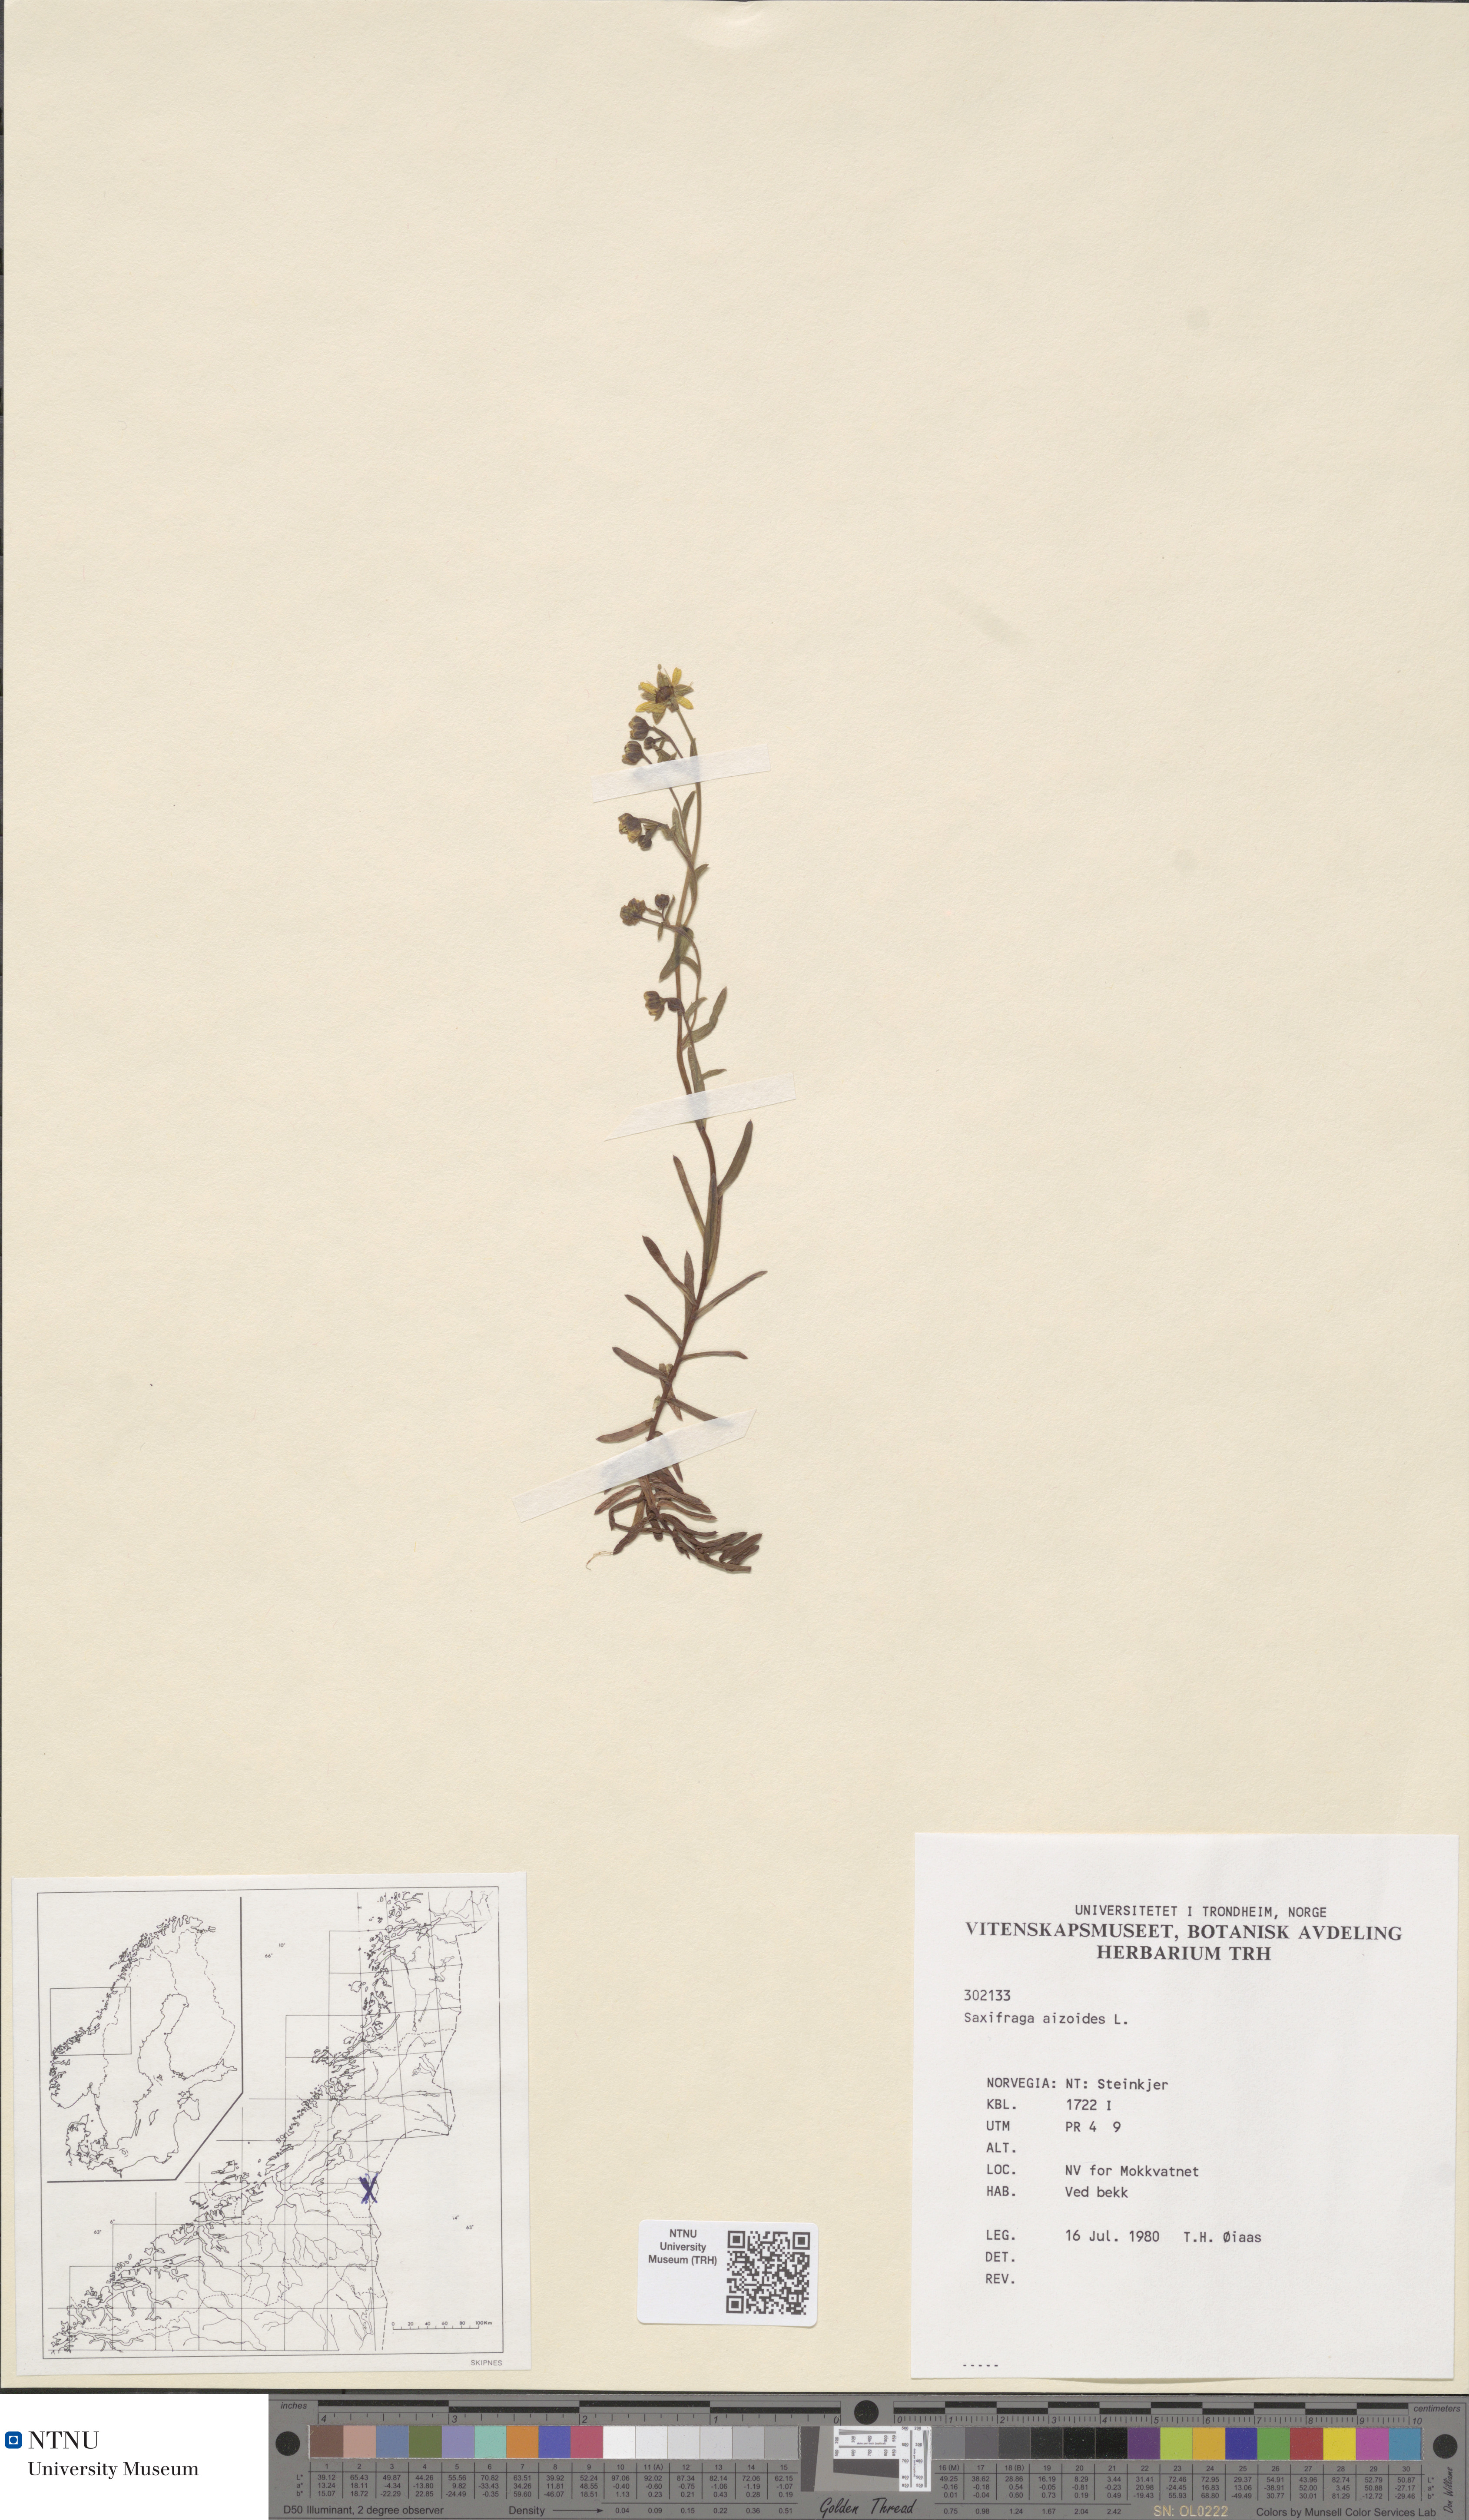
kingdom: Plantae
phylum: Tracheophyta
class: Magnoliopsida
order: Saxifragales
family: Saxifragaceae
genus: Saxifraga
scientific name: Saxifraga aizoides
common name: Yellow mountain saxifrage
